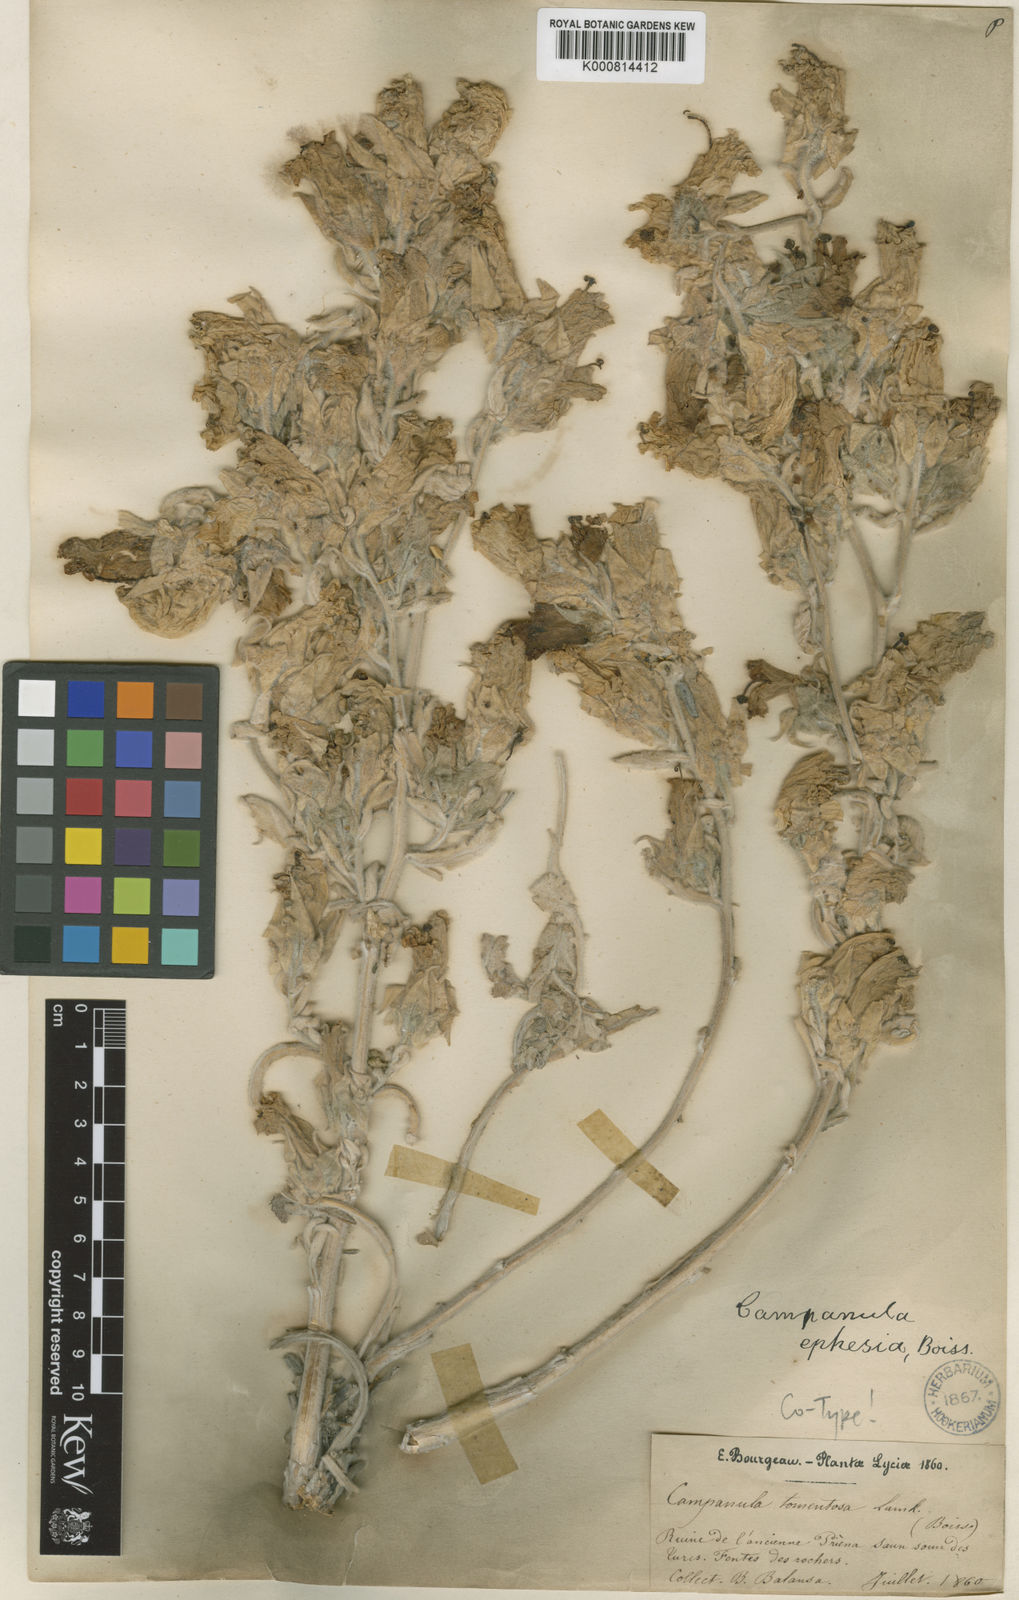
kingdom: Plantae
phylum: Tracheophyta
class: Magnoliopsida
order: Asterales
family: Campanulaceae
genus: Campanula
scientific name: Campanula tomentosa
